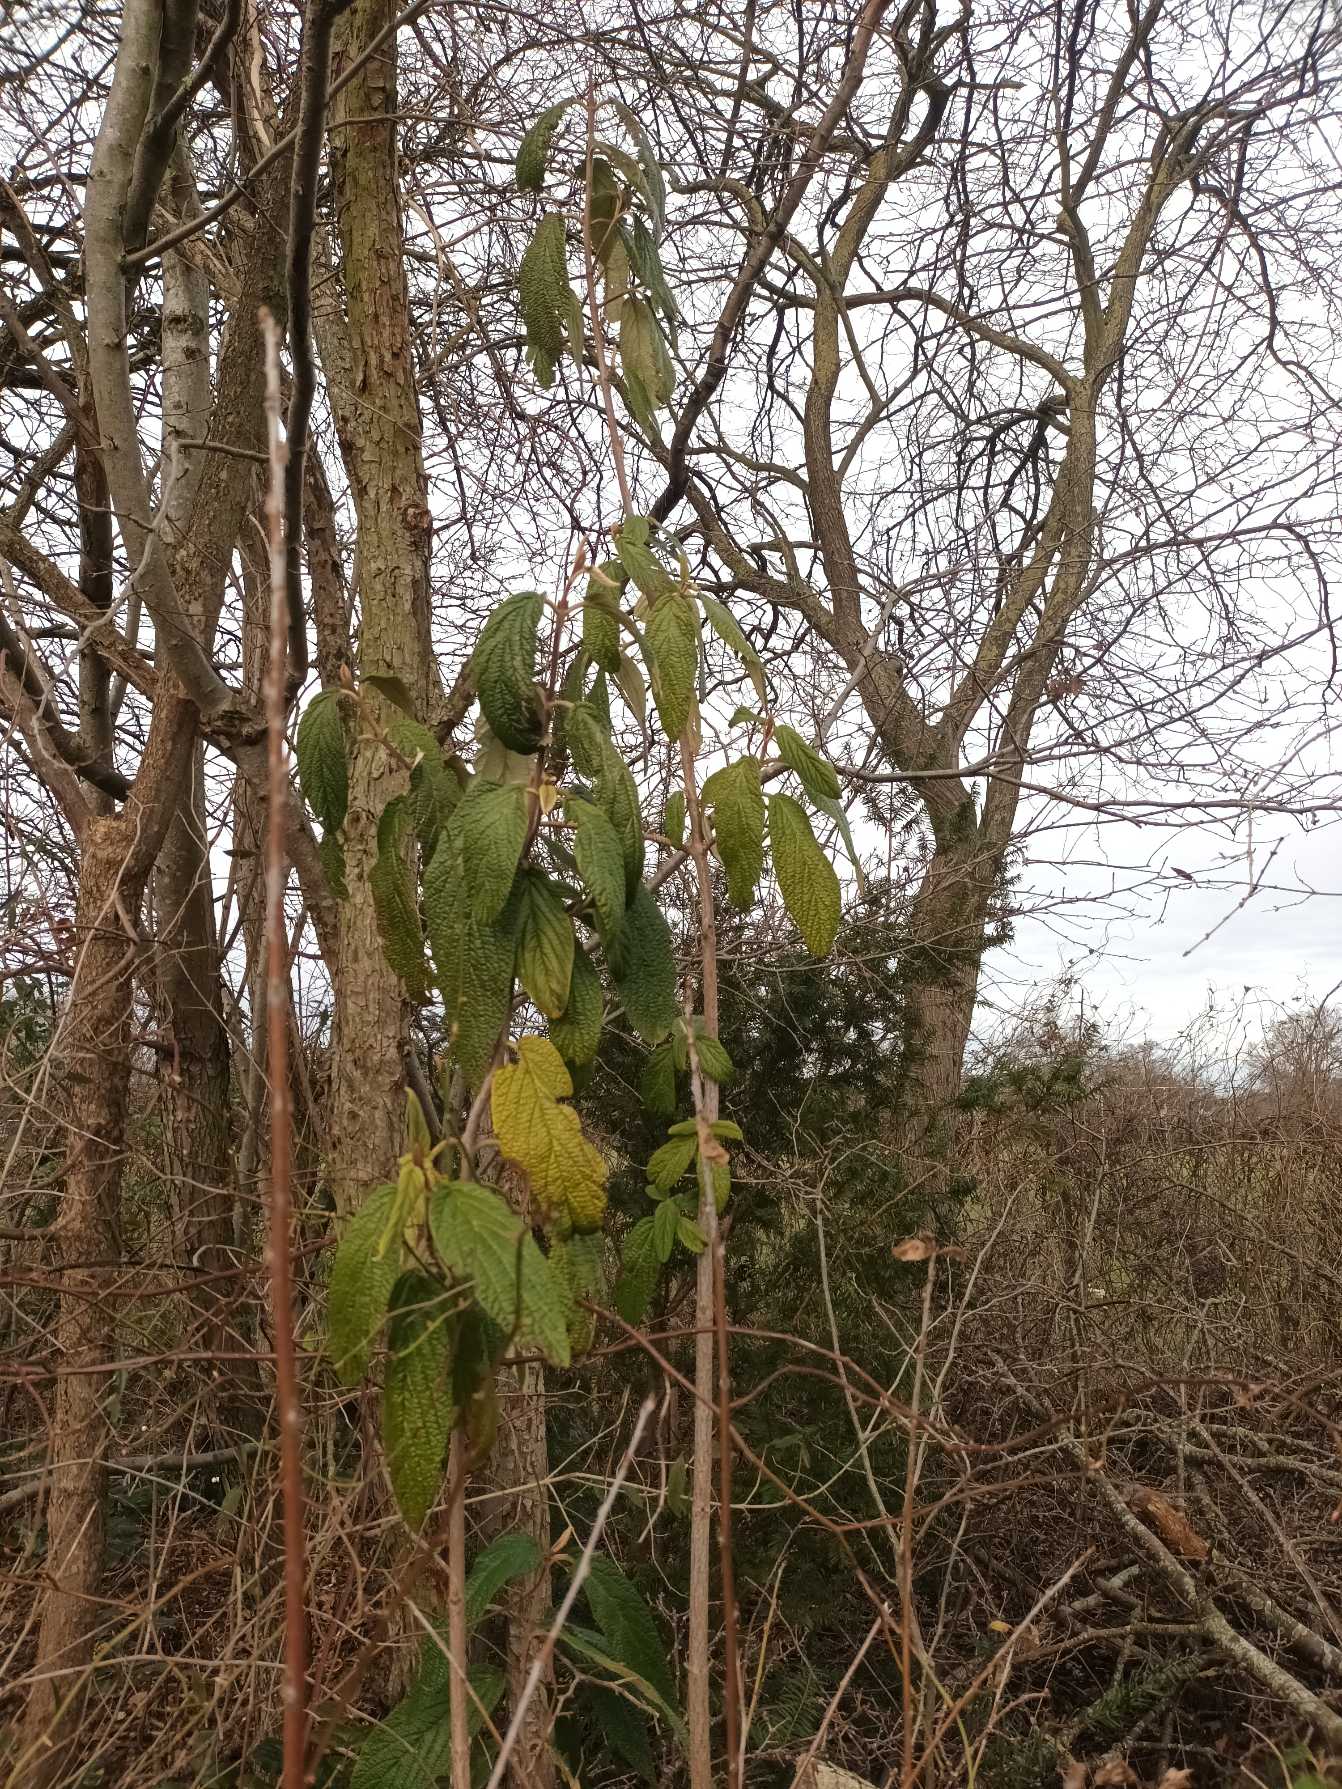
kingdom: Plantae
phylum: Tracheophyta
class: Magnoliopsida
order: Dipsacales
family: Viburnaceae
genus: Viburnum
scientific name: Viburnum rhytidophyllum
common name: Rynkeblad
